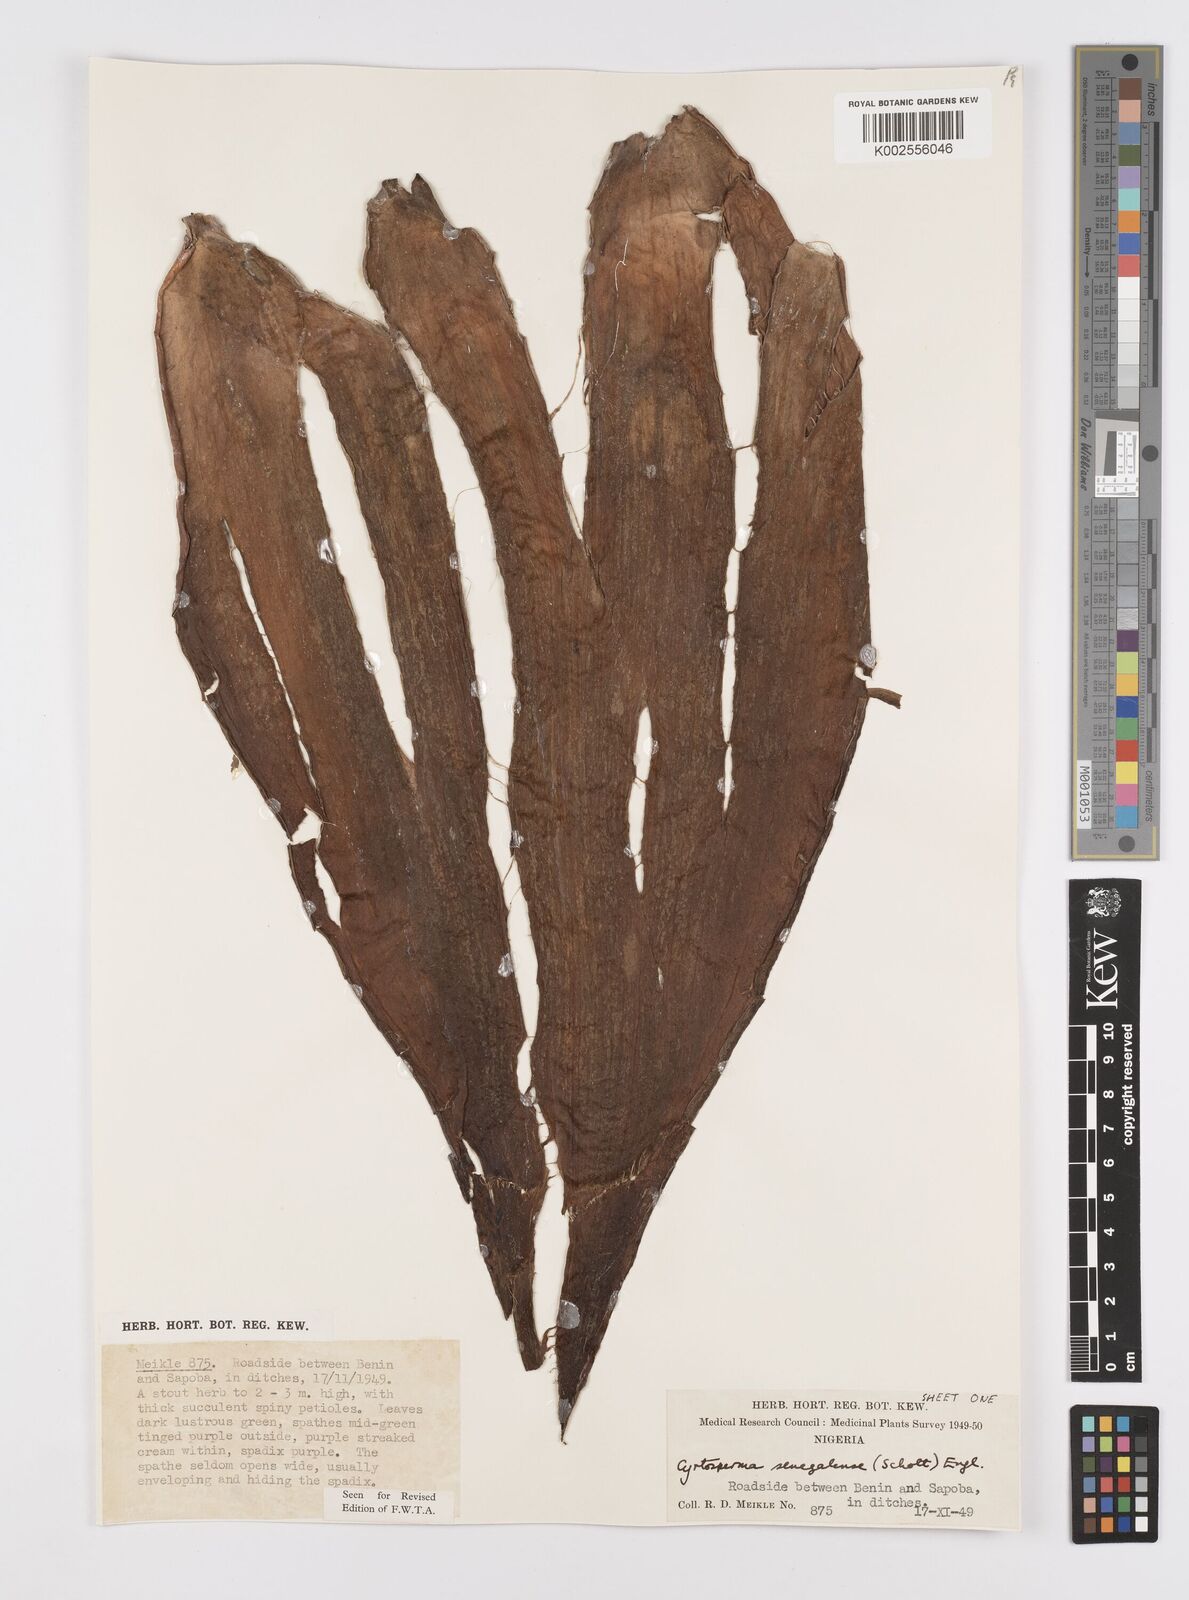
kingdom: Plantae
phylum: Tracheophyta
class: Liliopsida
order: Alismatales
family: Araceae
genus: Lasimorpha
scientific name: Lasimorpha senegalensis
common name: Swamp arum
